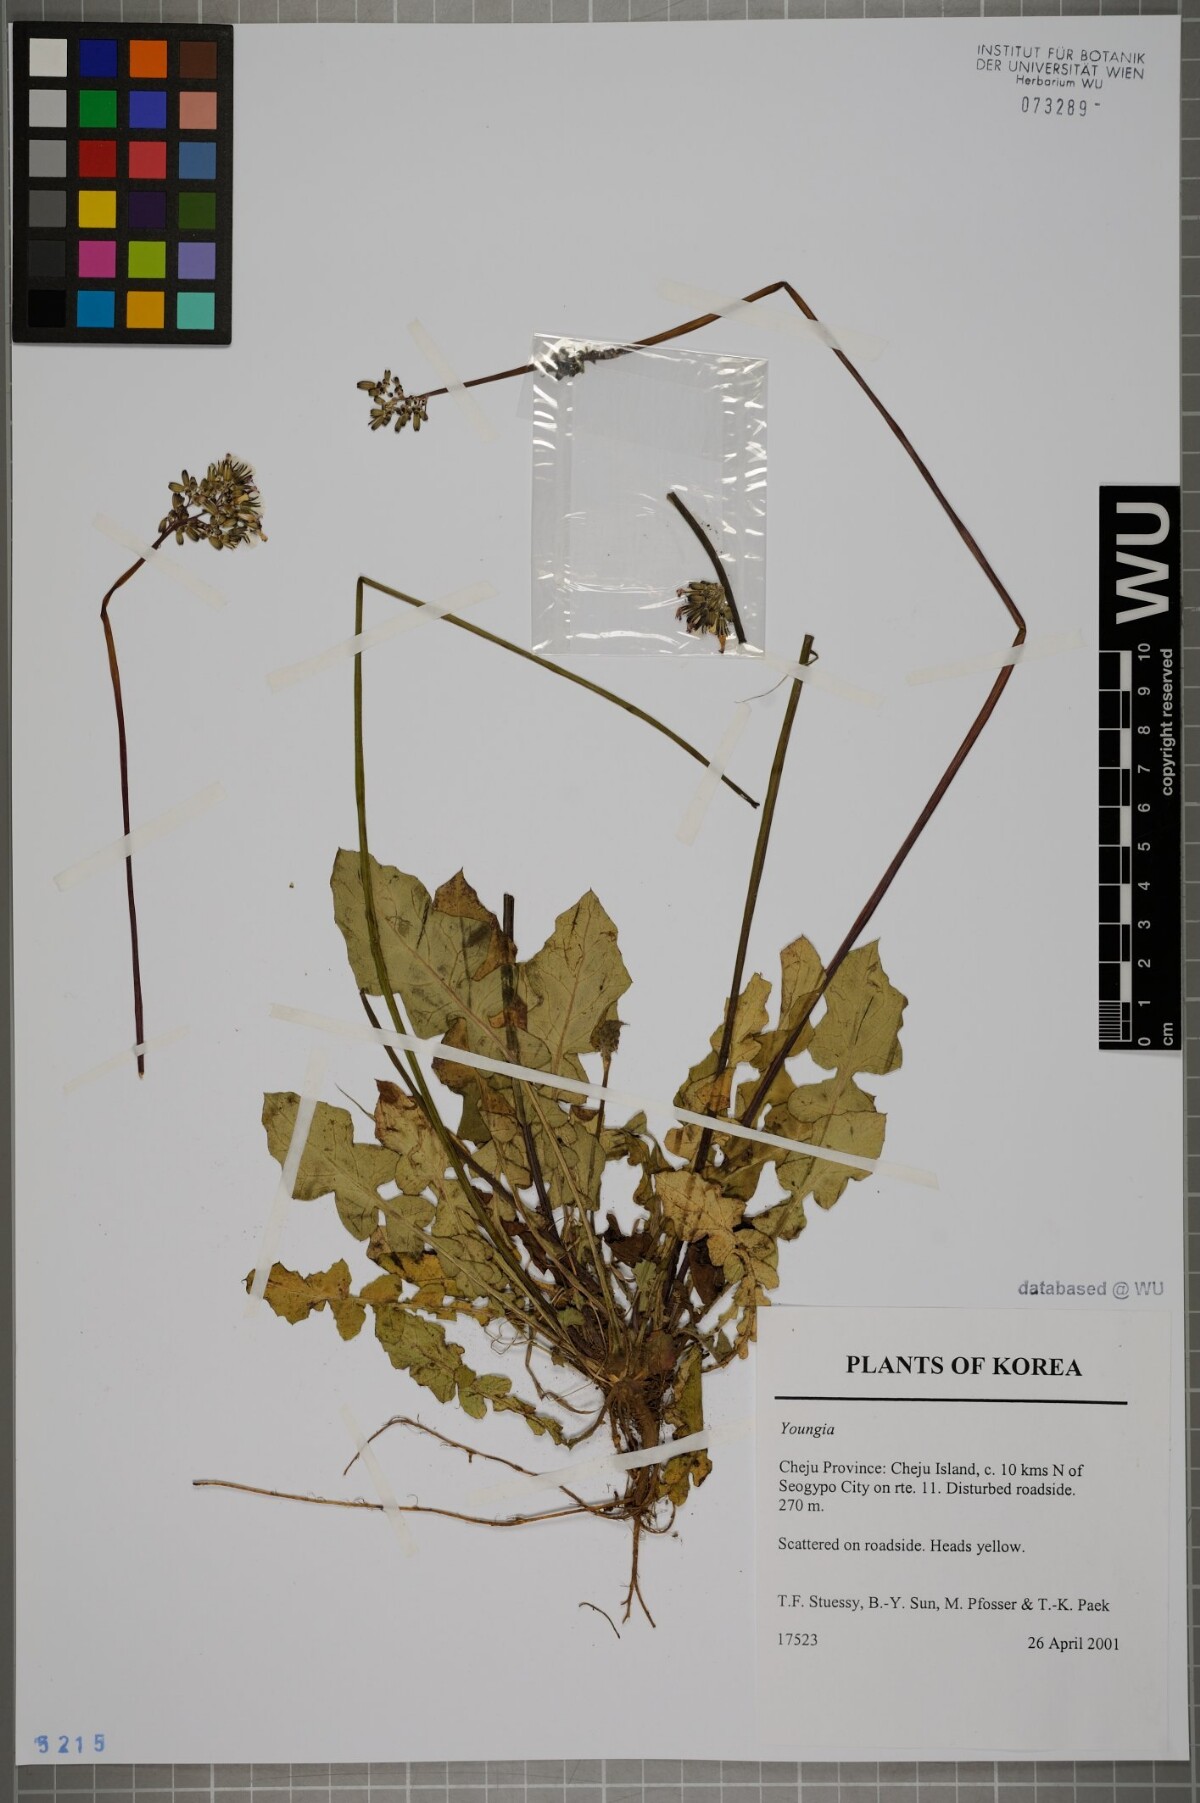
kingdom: Plantae
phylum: Tracheophyta
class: Magnoliopsida
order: Asterales
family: Asteraceae
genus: Youngia
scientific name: Youngia
